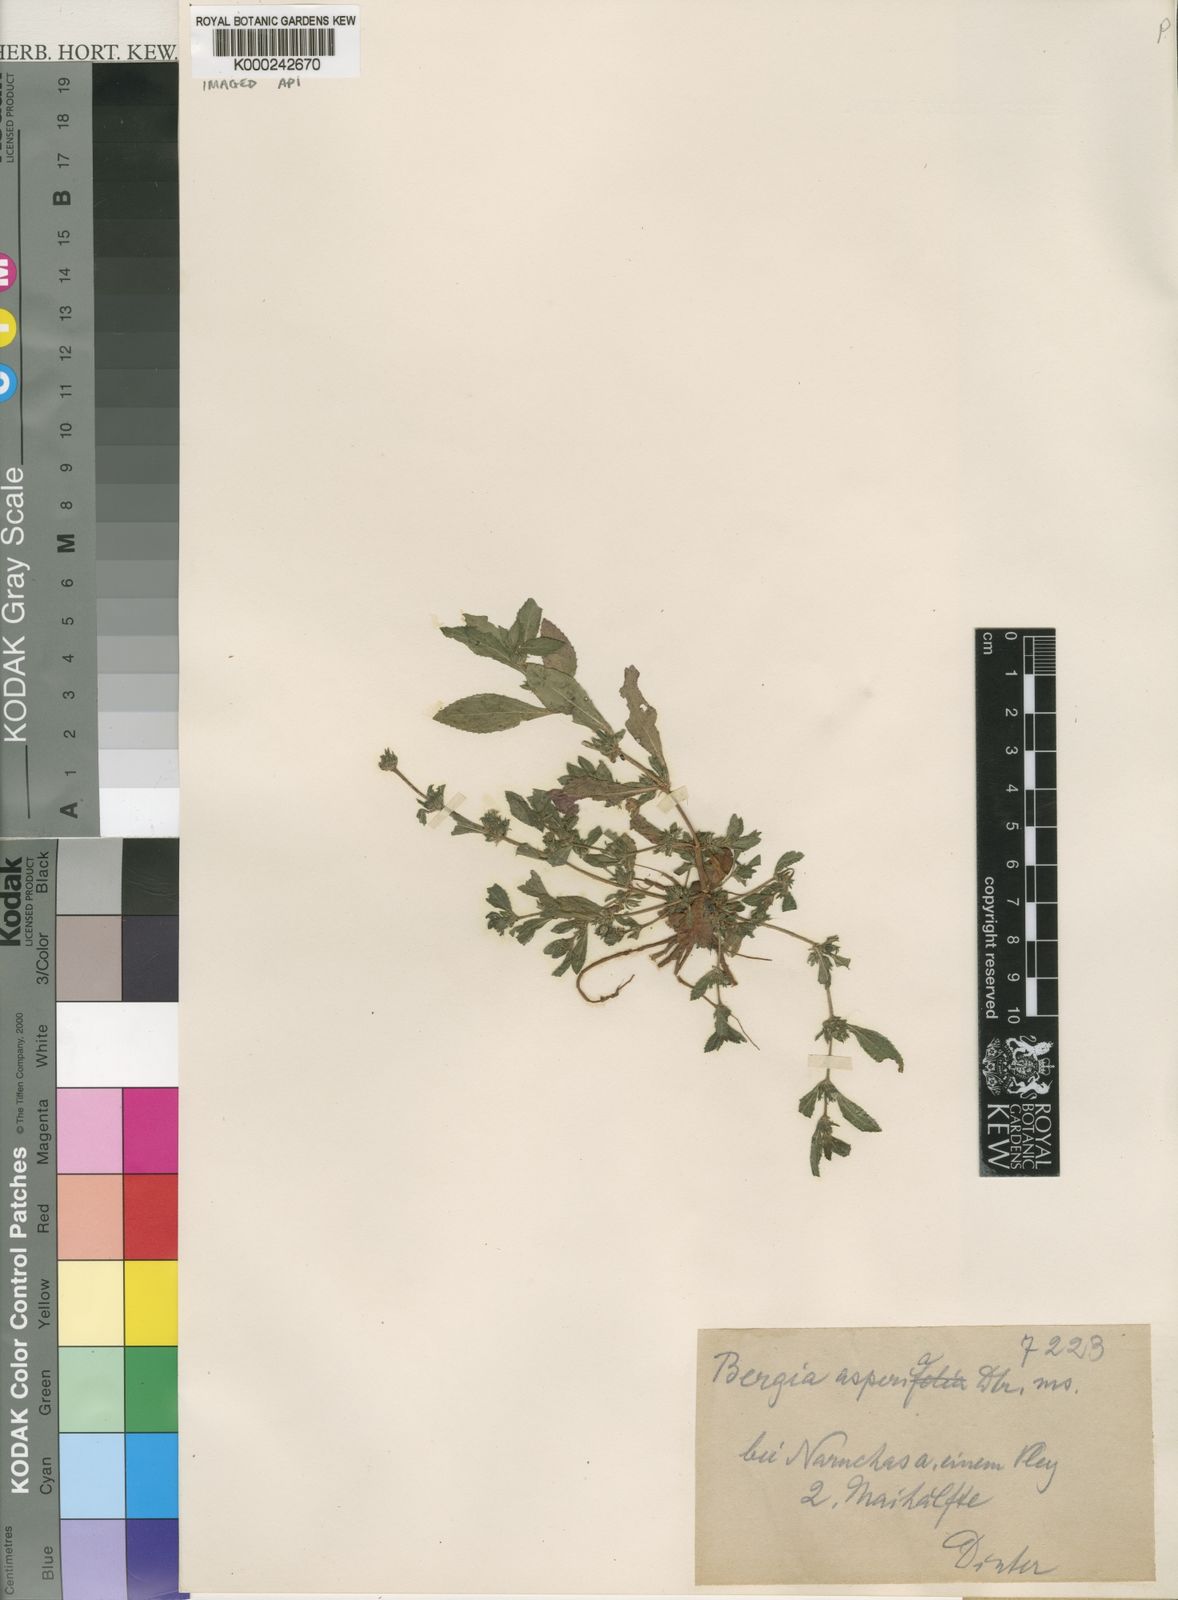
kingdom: Plantae
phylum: Tracheophyta
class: Magnoliopsida
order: Malpighiales
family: Elatinaceae
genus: Bergia
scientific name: Bergia
